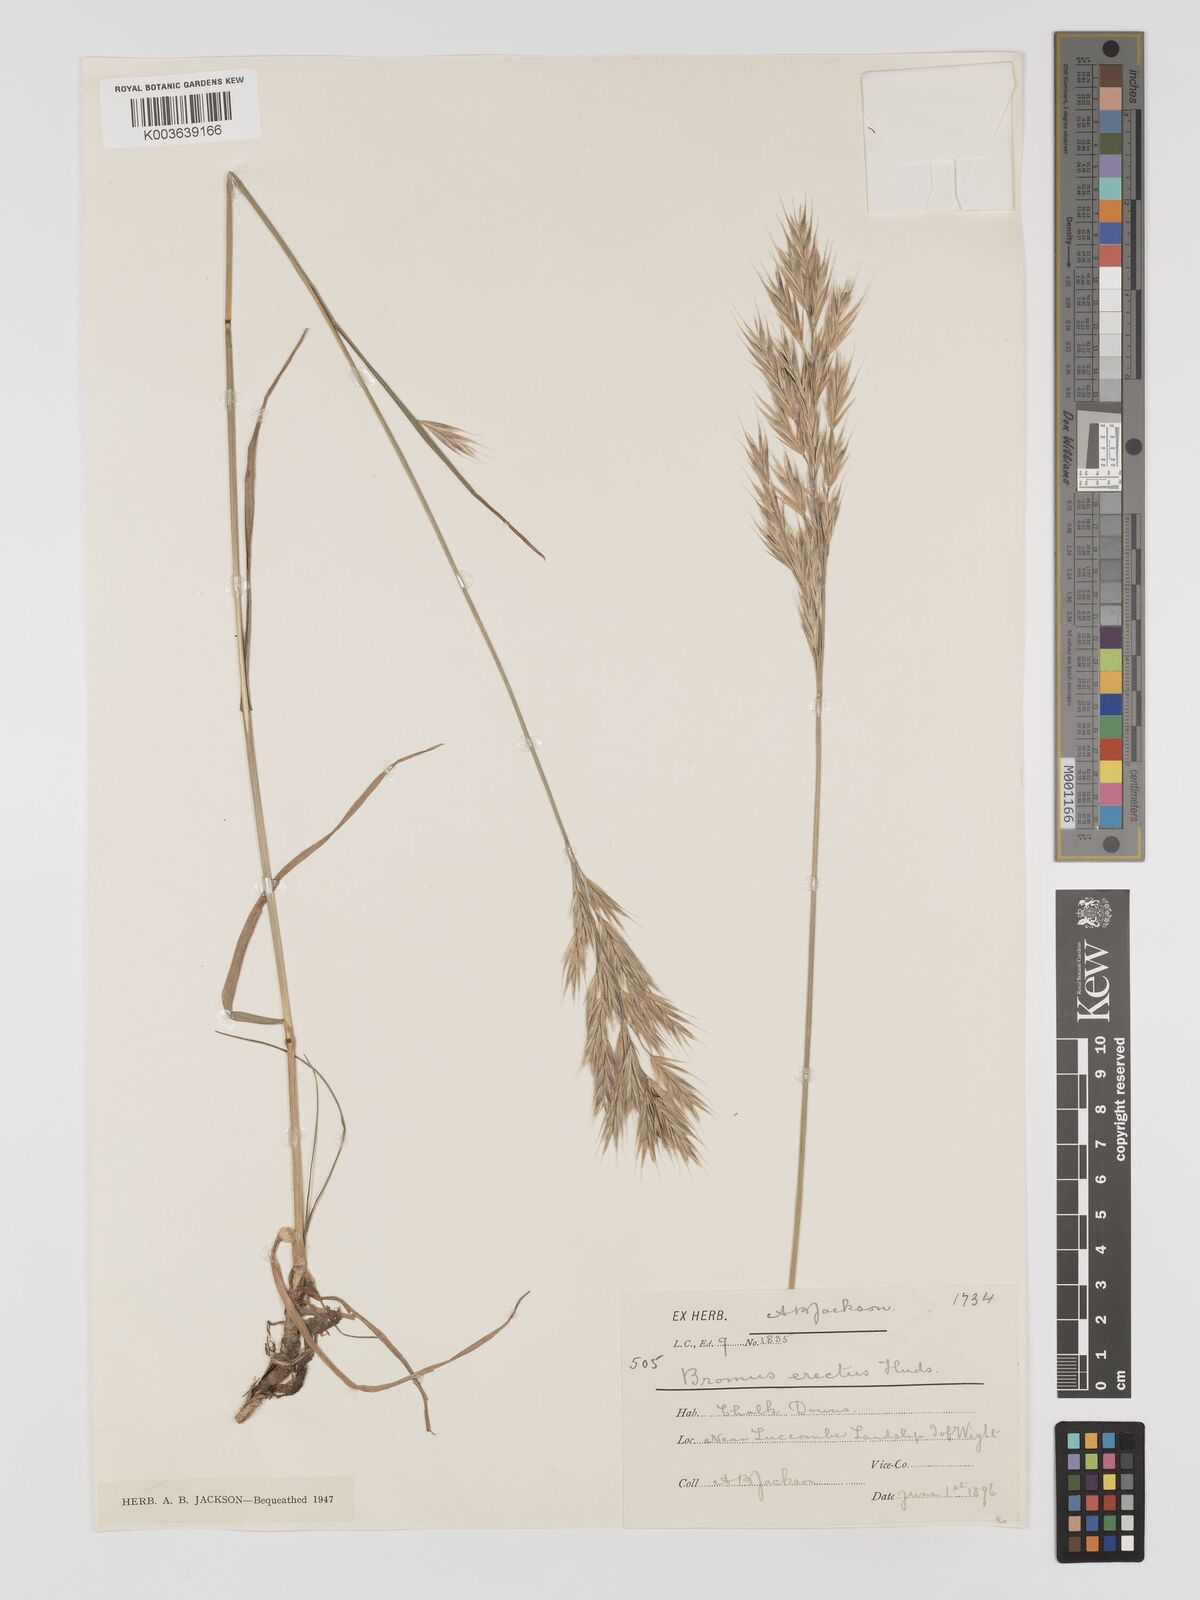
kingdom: Plantae
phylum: Tracheophyta
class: Liliopsida
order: Poales
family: Poaceae
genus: Bromus
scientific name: Bromus erectus
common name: Erect brome
